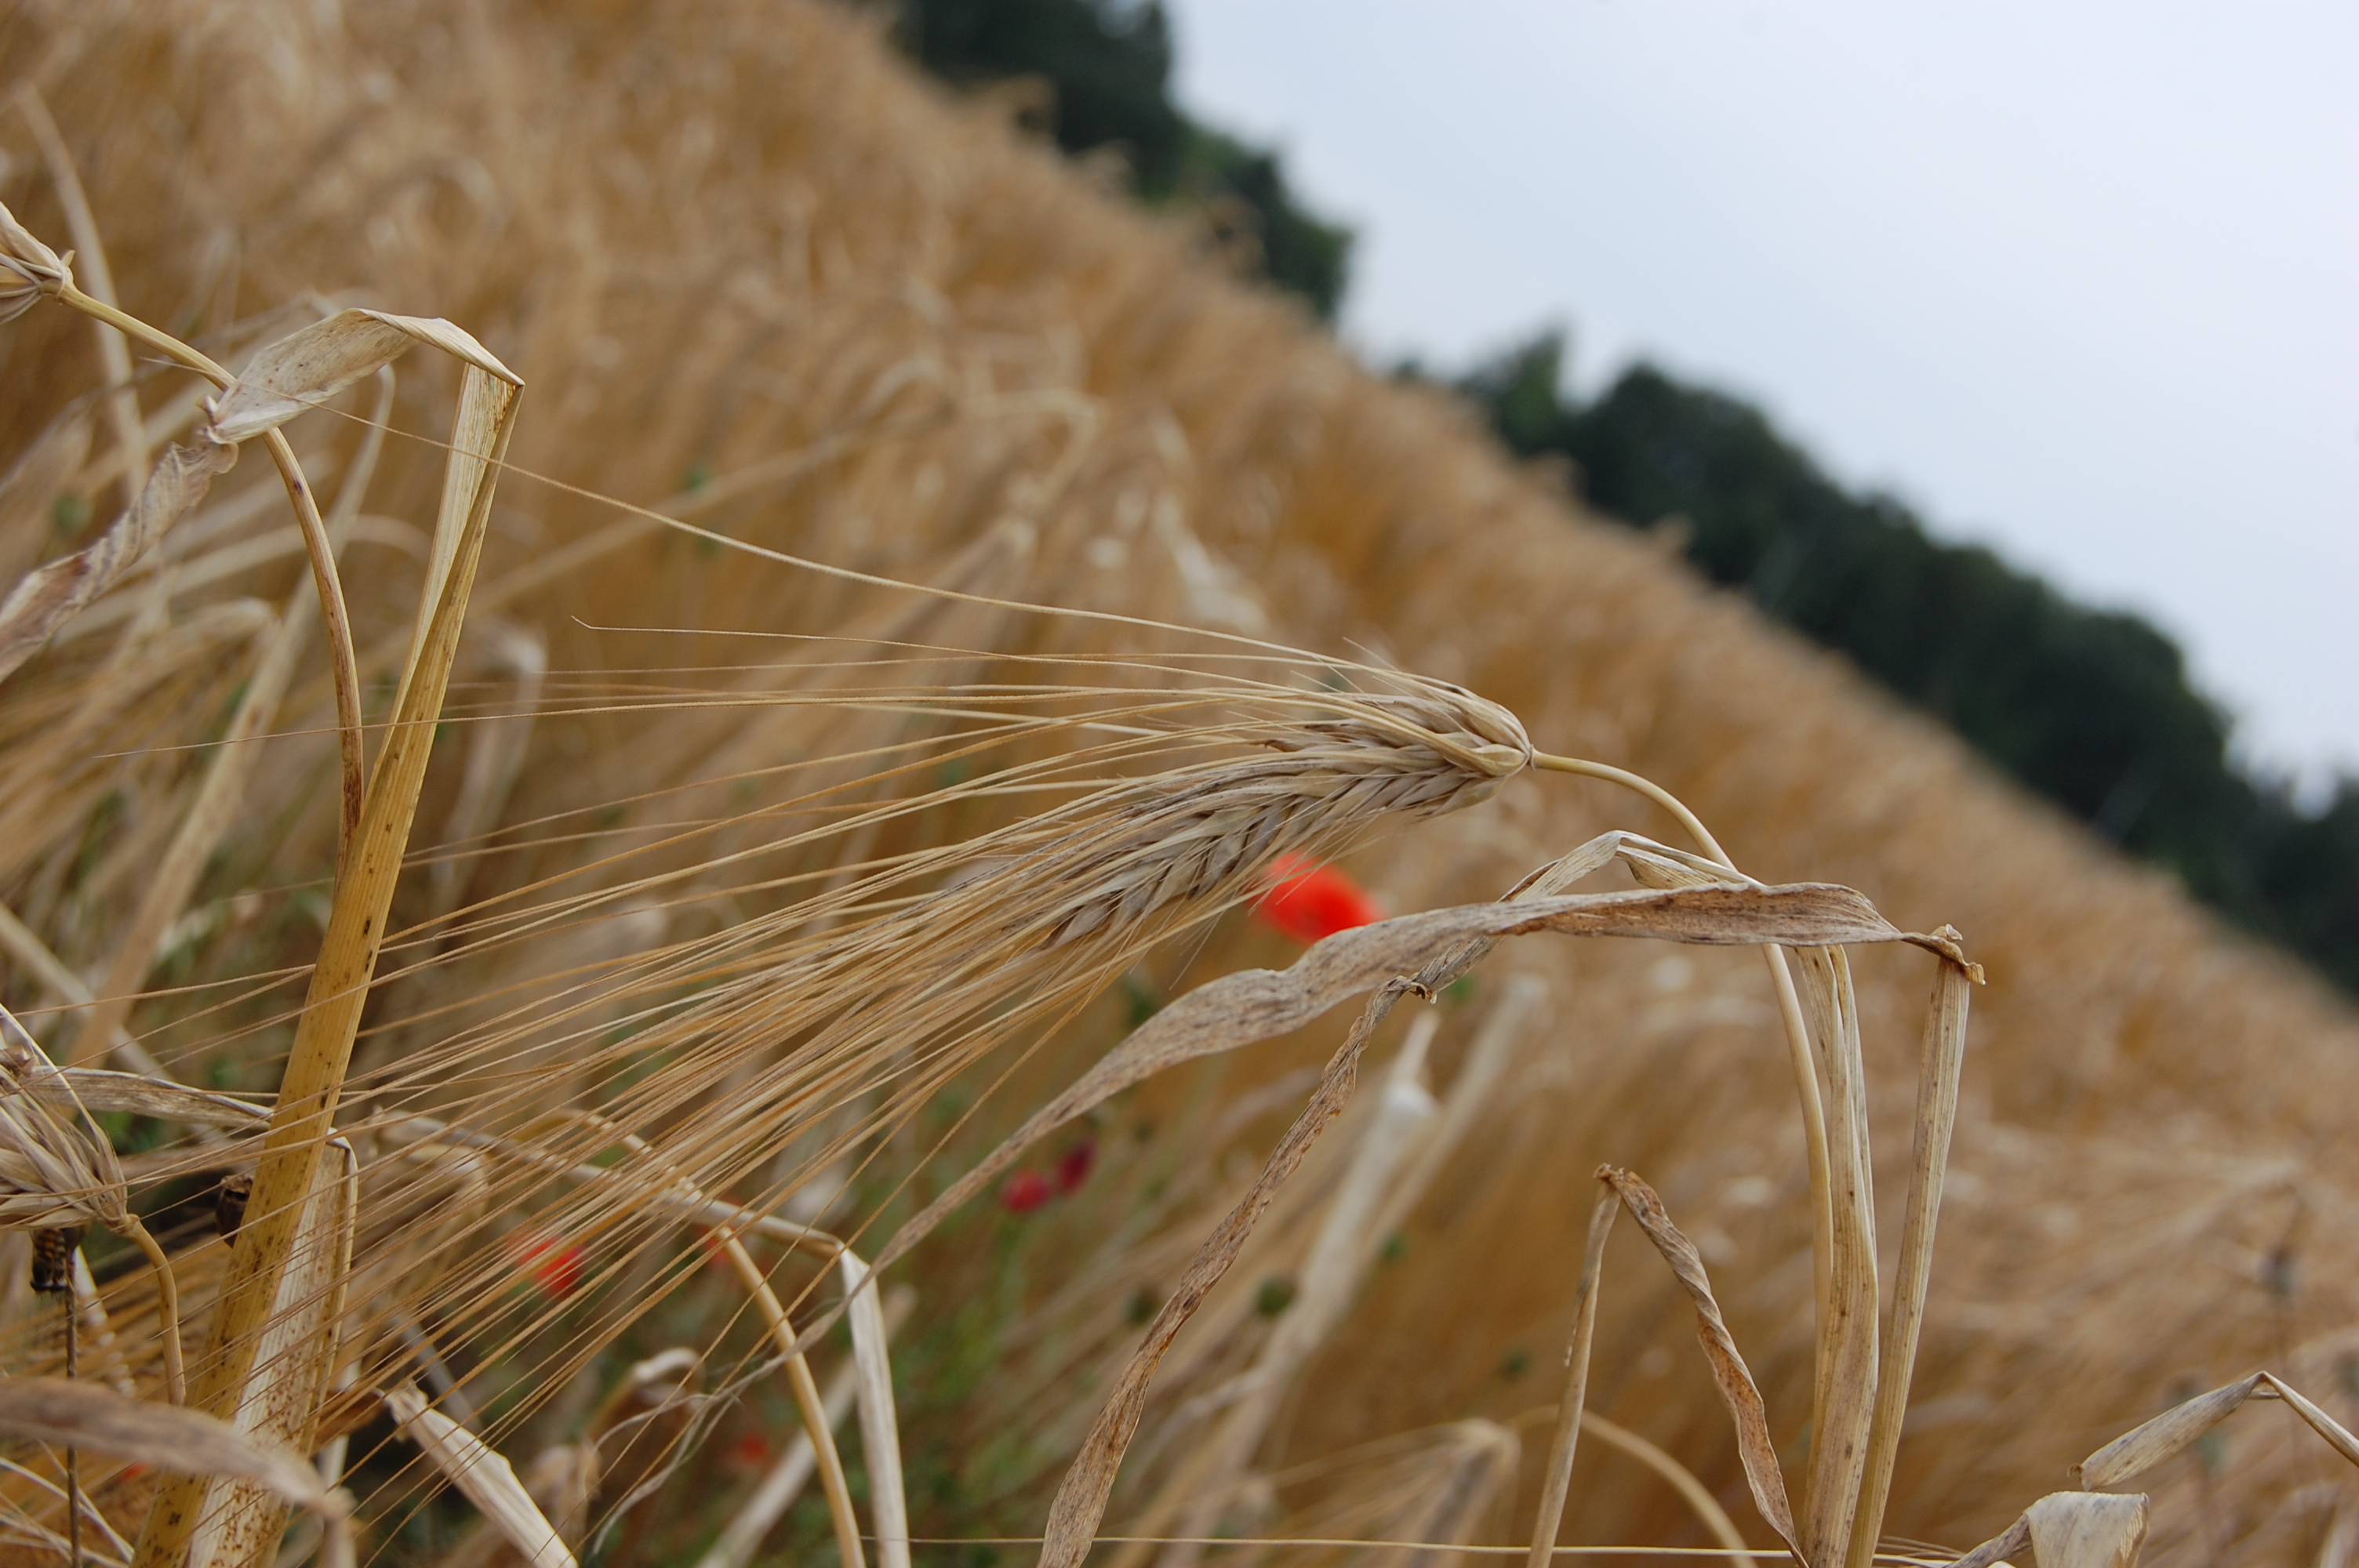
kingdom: Plantae
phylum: Tracheophyta
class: Liliopsida
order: Poales
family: Poaceae
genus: Hordeum
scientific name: Hordeum vulgare
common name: Common barley
